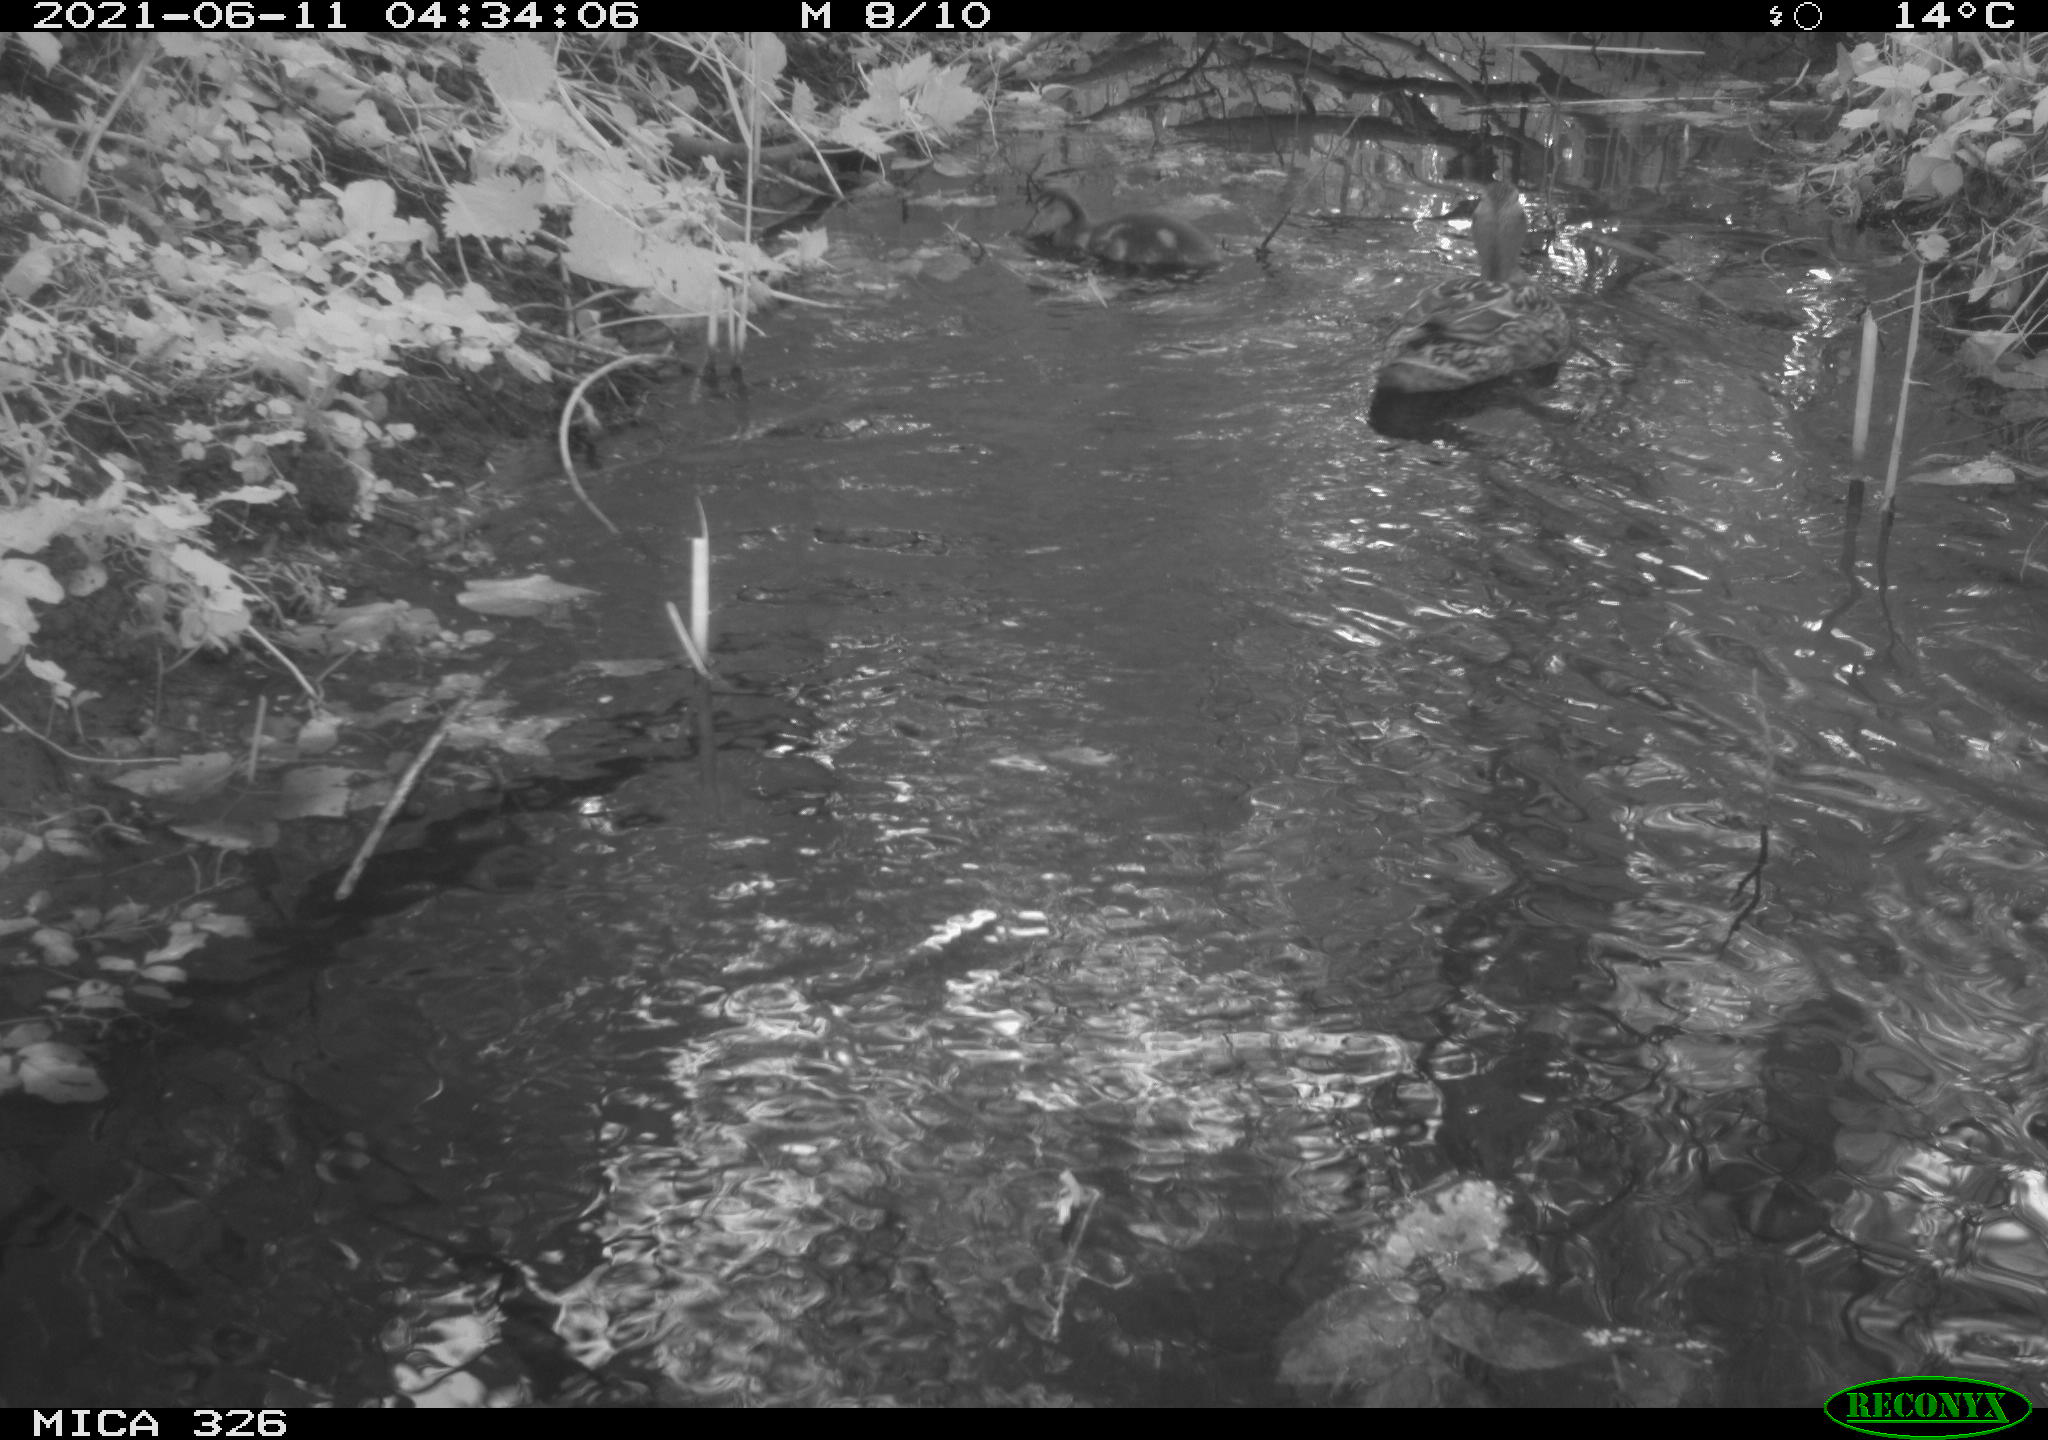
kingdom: Animalia
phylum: Chordata
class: Aves
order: Anseriformes
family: Anatidae
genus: Anas
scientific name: Anas platyrhynchos
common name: Mallard
